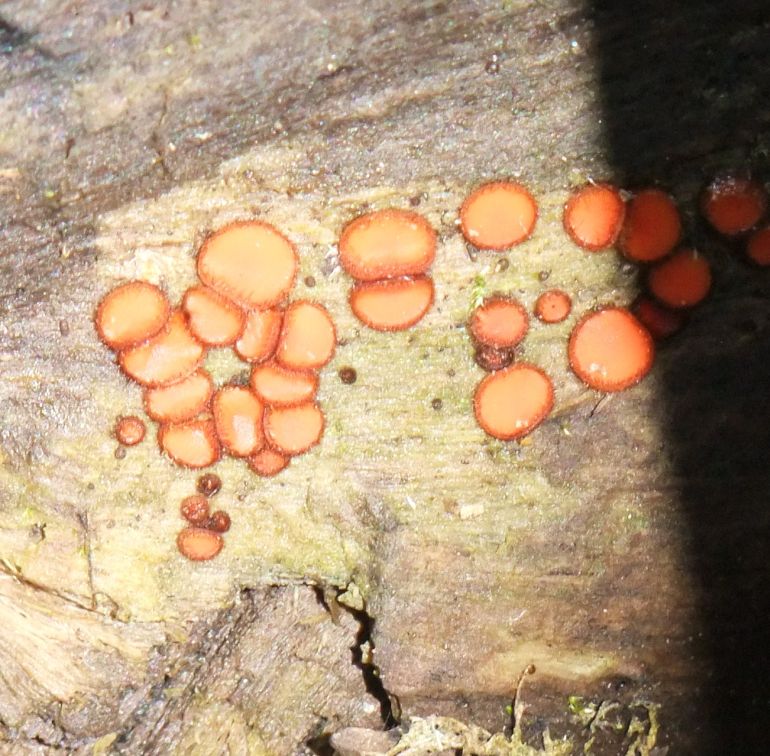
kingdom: Fungi
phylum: Ascomycota
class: Pezizomycetes
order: Pezizales
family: Pyronemataceae
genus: Scutellinia
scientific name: Scutellinia scutellata
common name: frynset skjoldbæger
